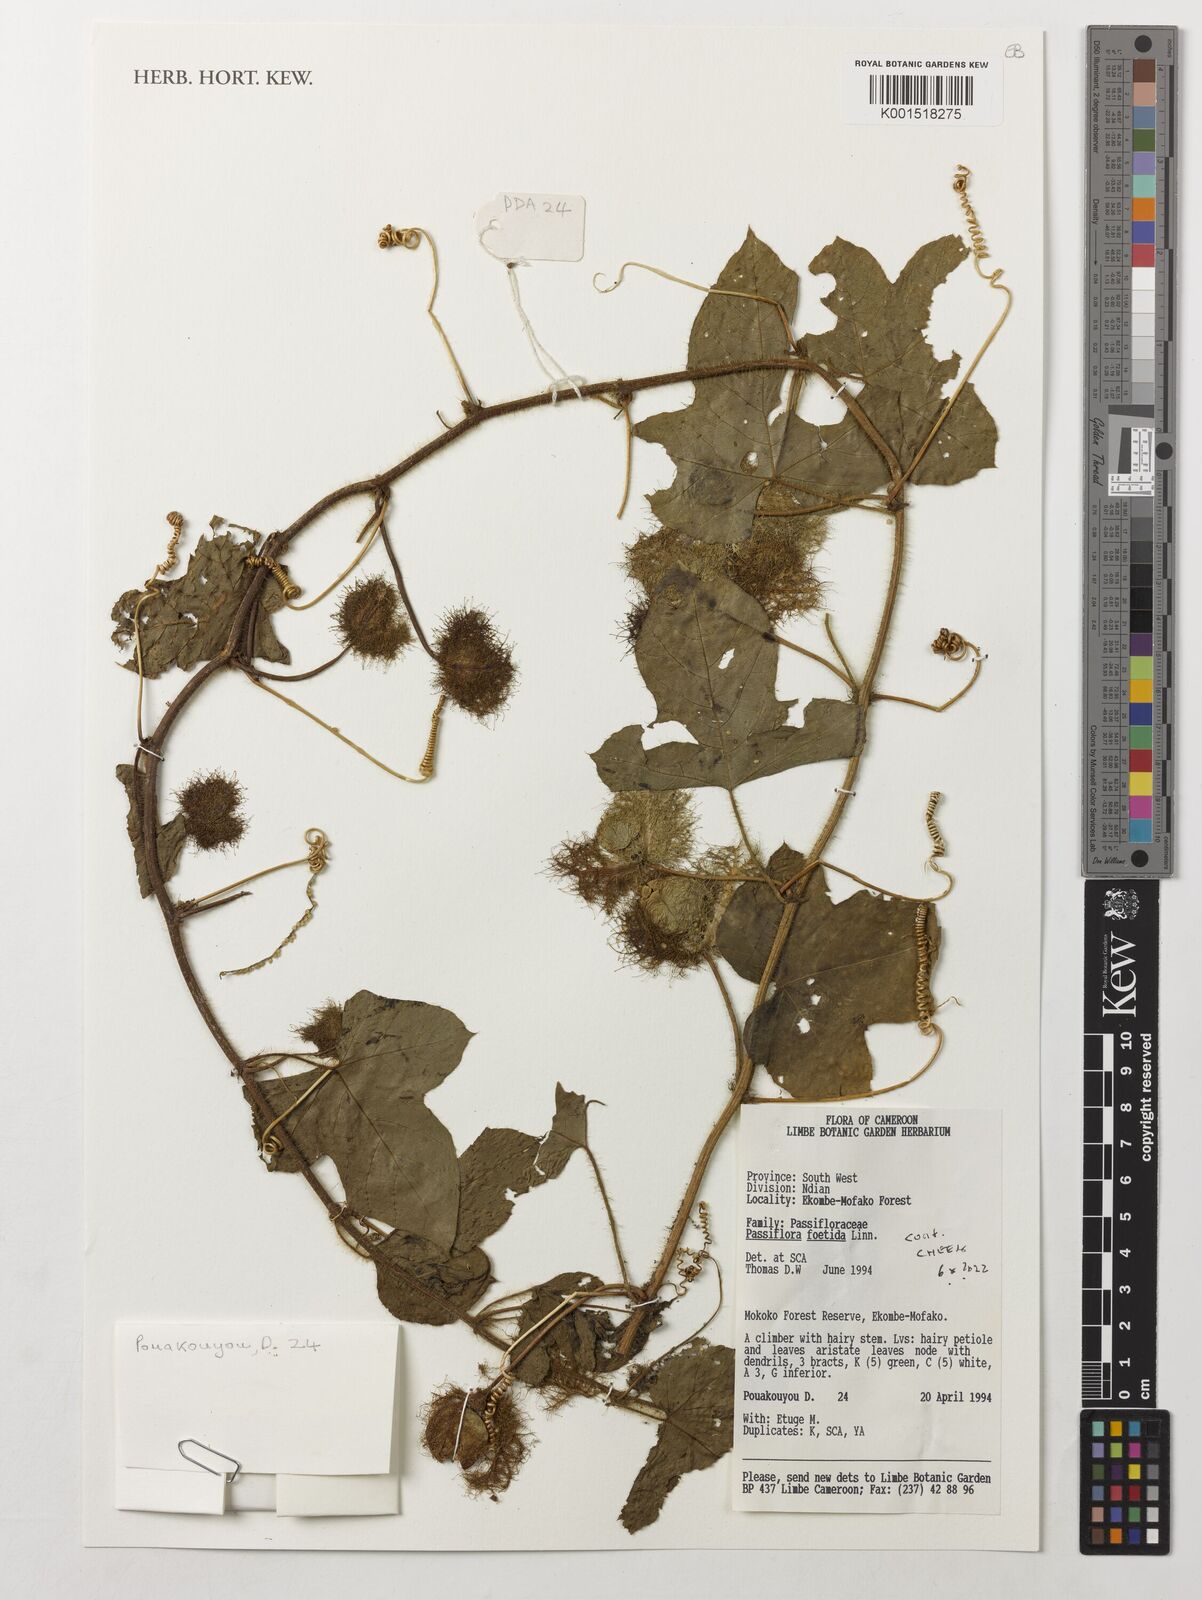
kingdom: Plantae
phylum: Tracheophyta
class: Magnoliopsida
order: Malpighiales
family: Passifloraceae
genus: Passiflora
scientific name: Passiflora foetida
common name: Fetid passionflower
